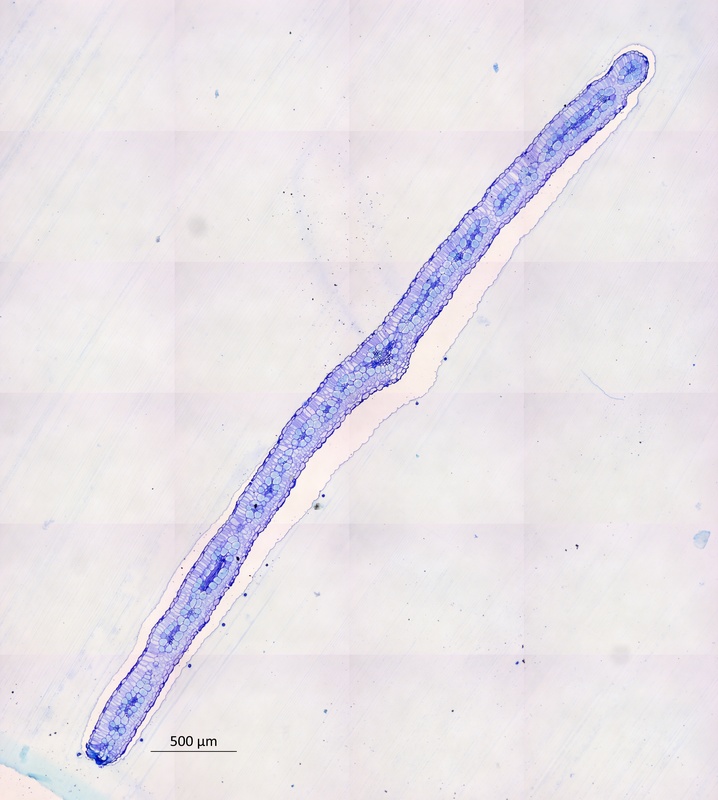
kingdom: Plantae
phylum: Tracheophyta
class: Magnoliopsida
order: Zygophyllales
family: Zygophyllaceae
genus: Tribulus
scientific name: Tribulus micrococcus
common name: Spineless caltrop
